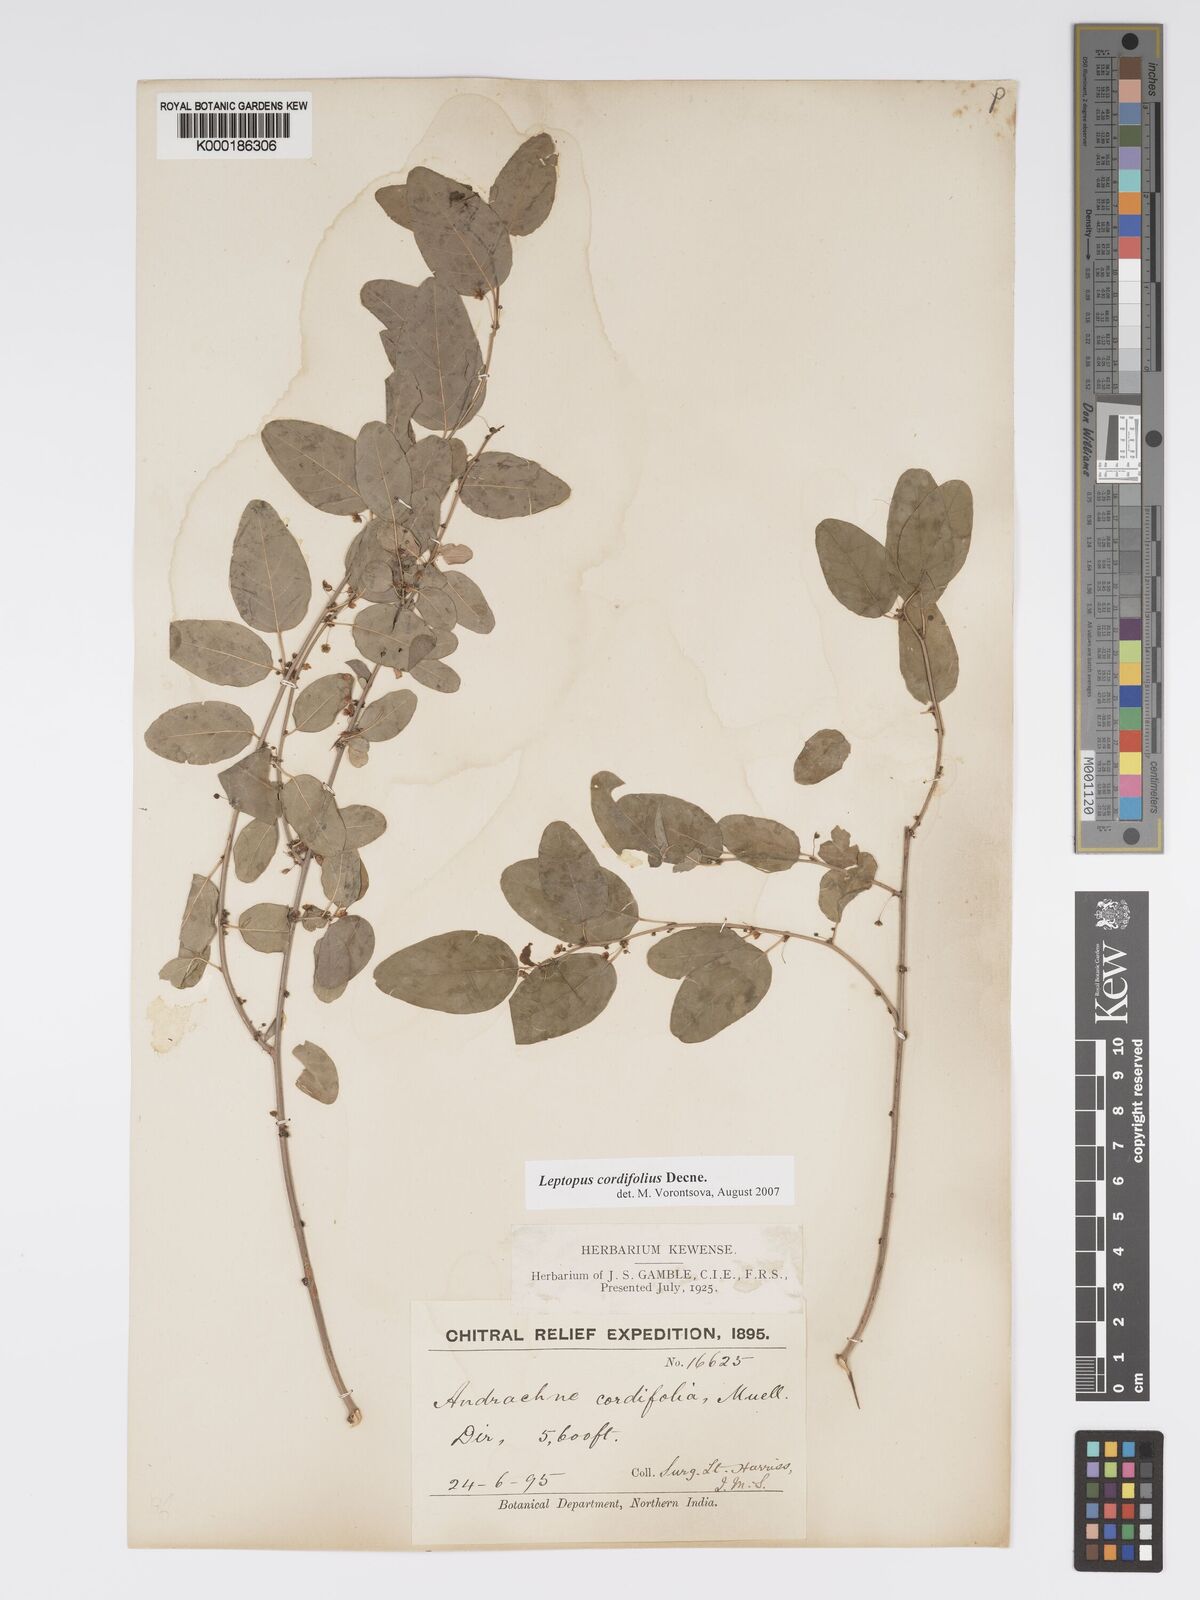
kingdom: Plantae
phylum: Tracheophyta
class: Magnoliopsida
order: Malpighiales
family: Phyllanthaceae
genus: Leptopus
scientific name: Leptopus cordifolius
